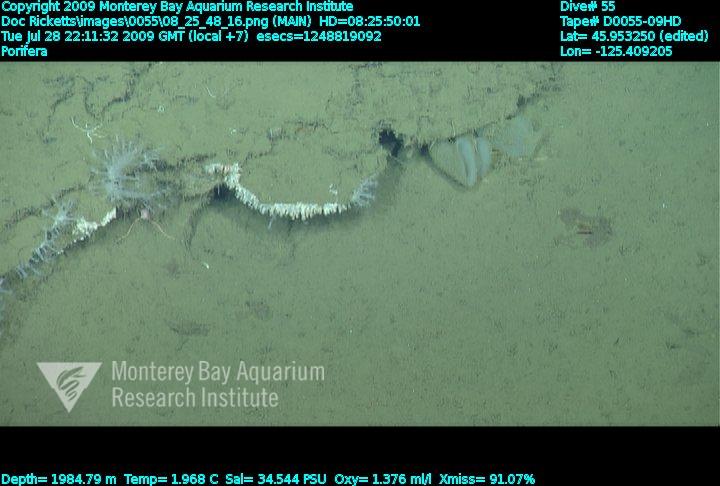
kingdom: Animalia
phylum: Porifera
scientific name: Porifera
